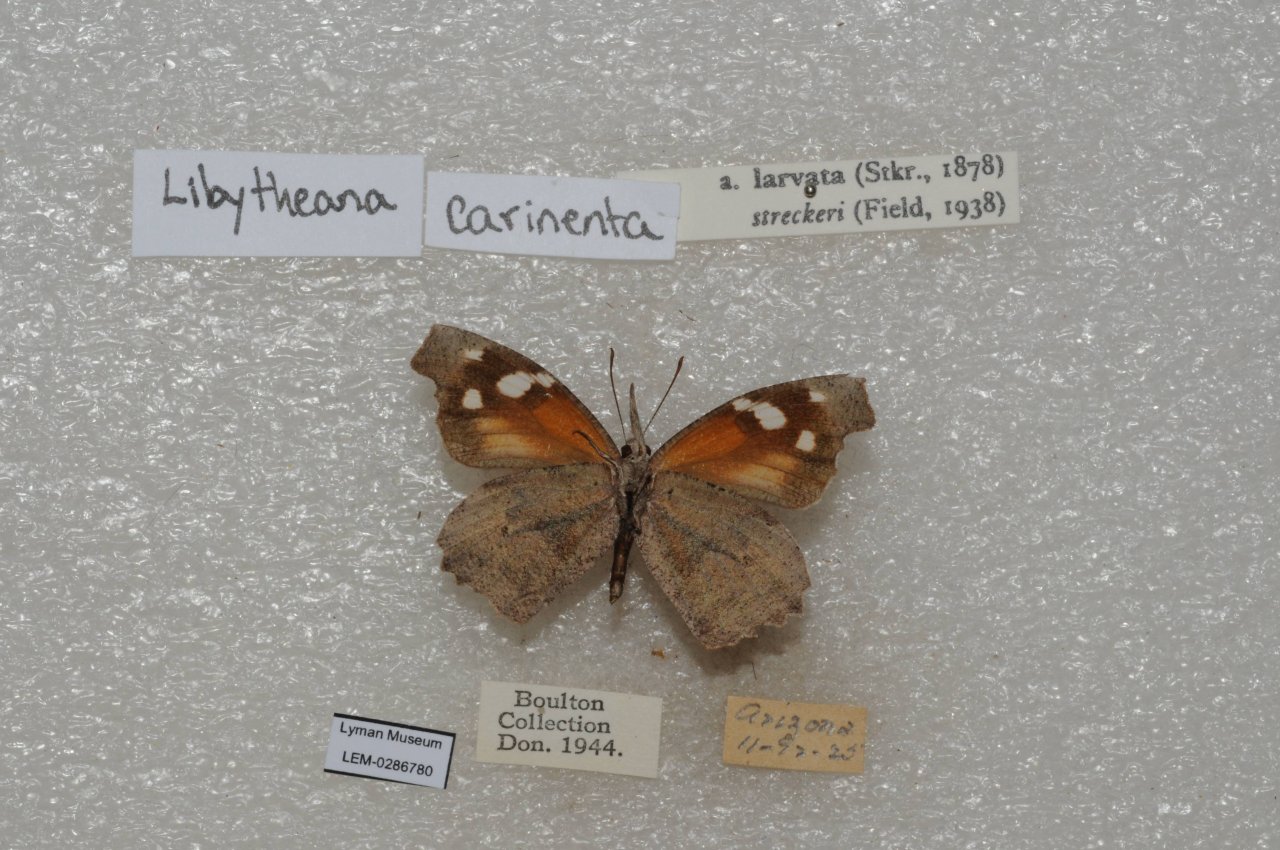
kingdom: Animalia
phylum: Arthropoda
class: Insecta
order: Lepidoptera
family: Nymphalidae
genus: Libytheana
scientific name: Libytheana carinenta
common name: American Snout
